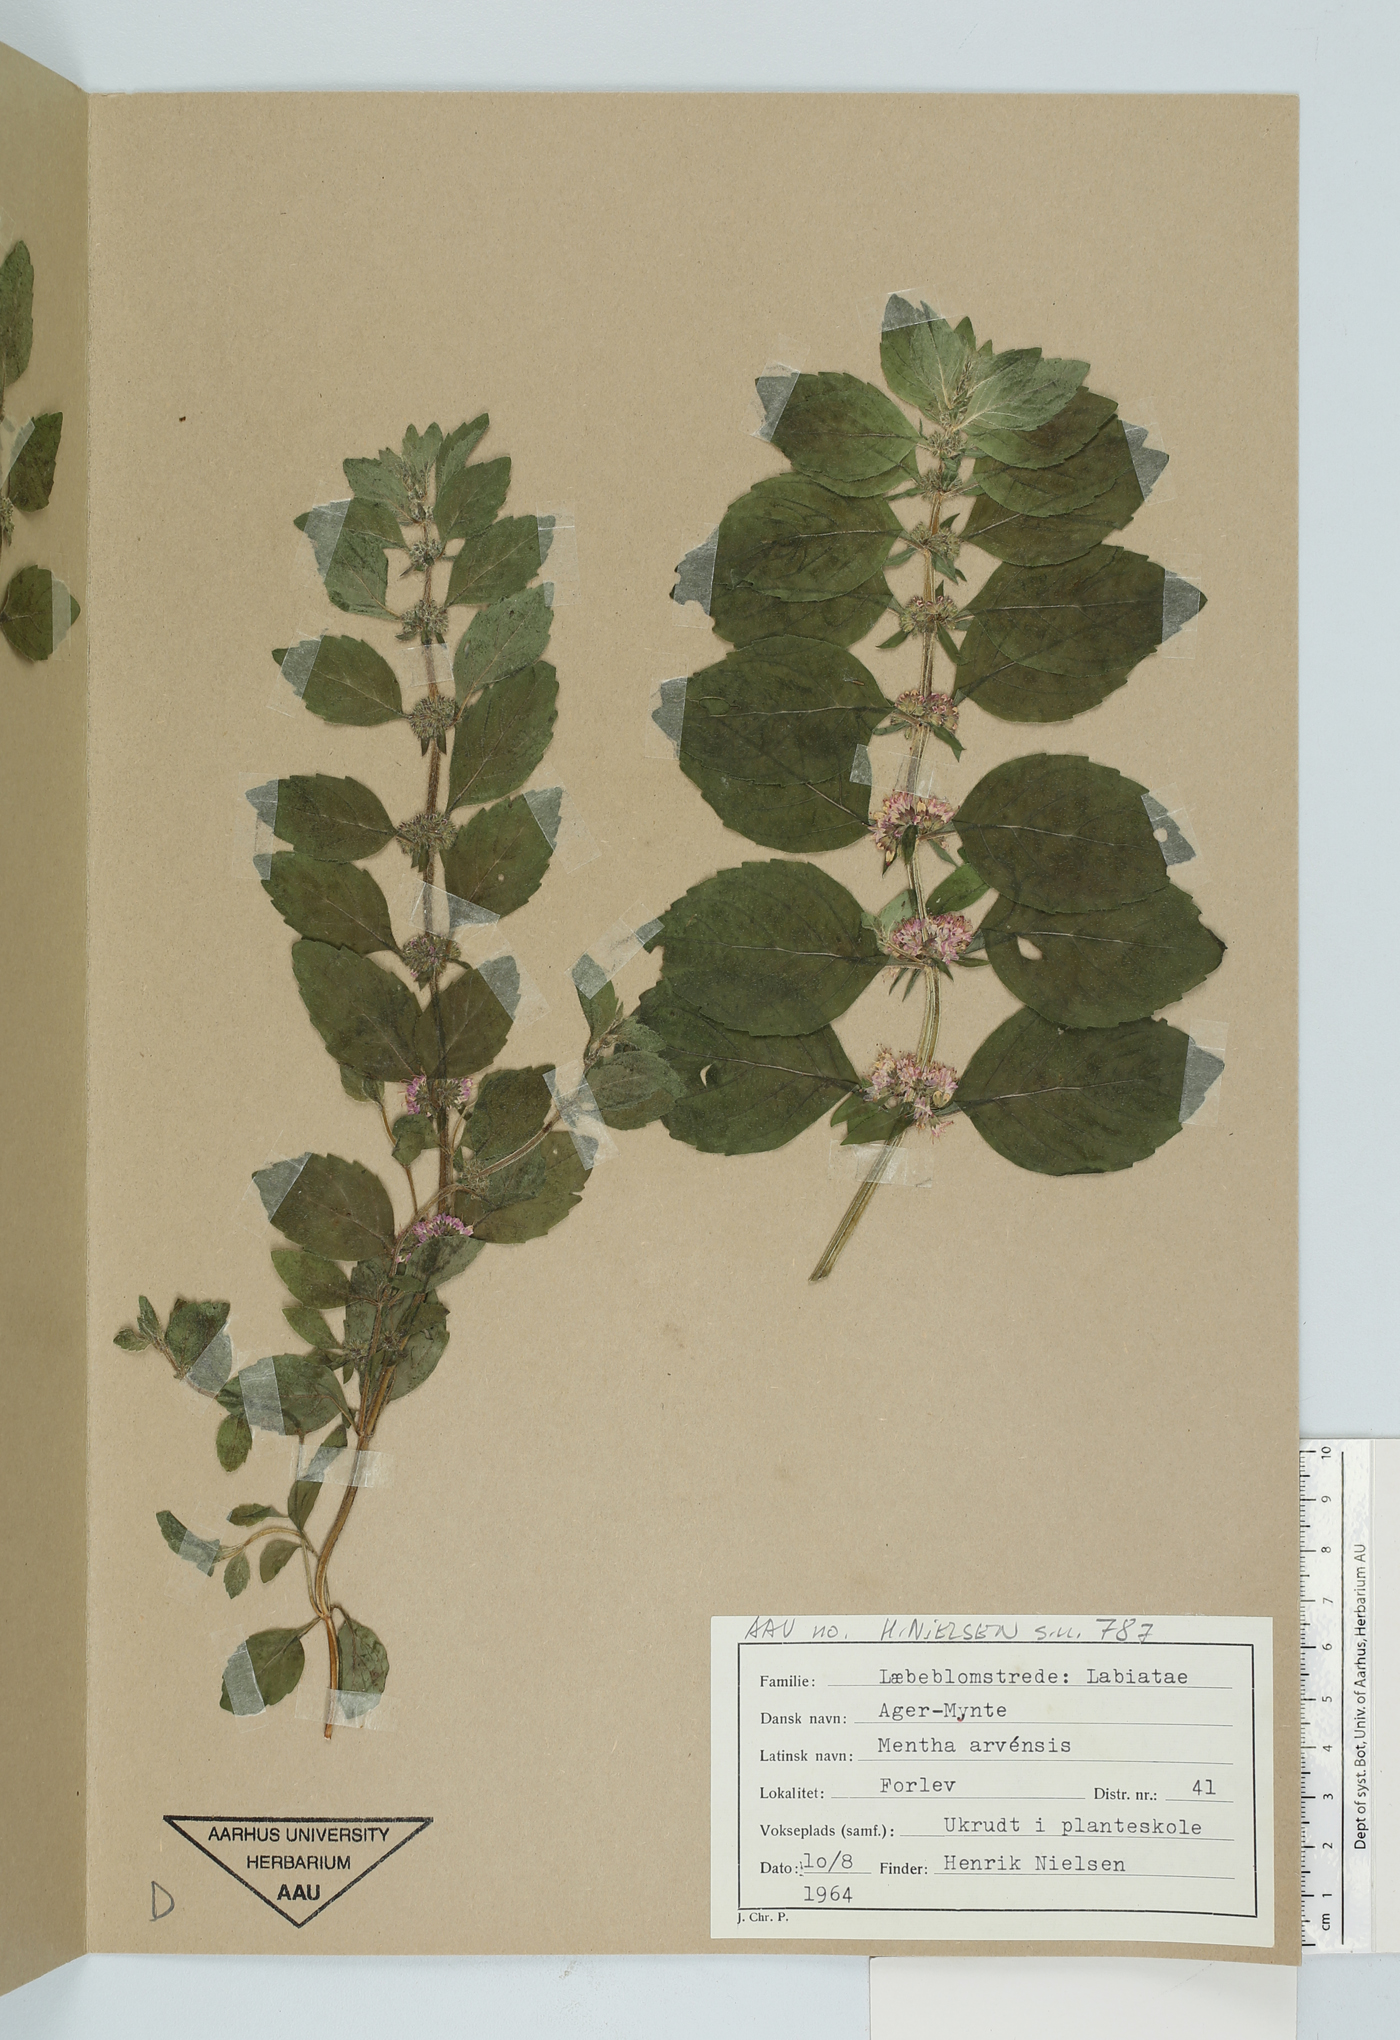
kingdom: Plantae
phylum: Tracheophyta
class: Magnoliopsida
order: Lamiales
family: Lamiaceae
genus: Mentha
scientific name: Mentha arvensis
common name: Corn mint
